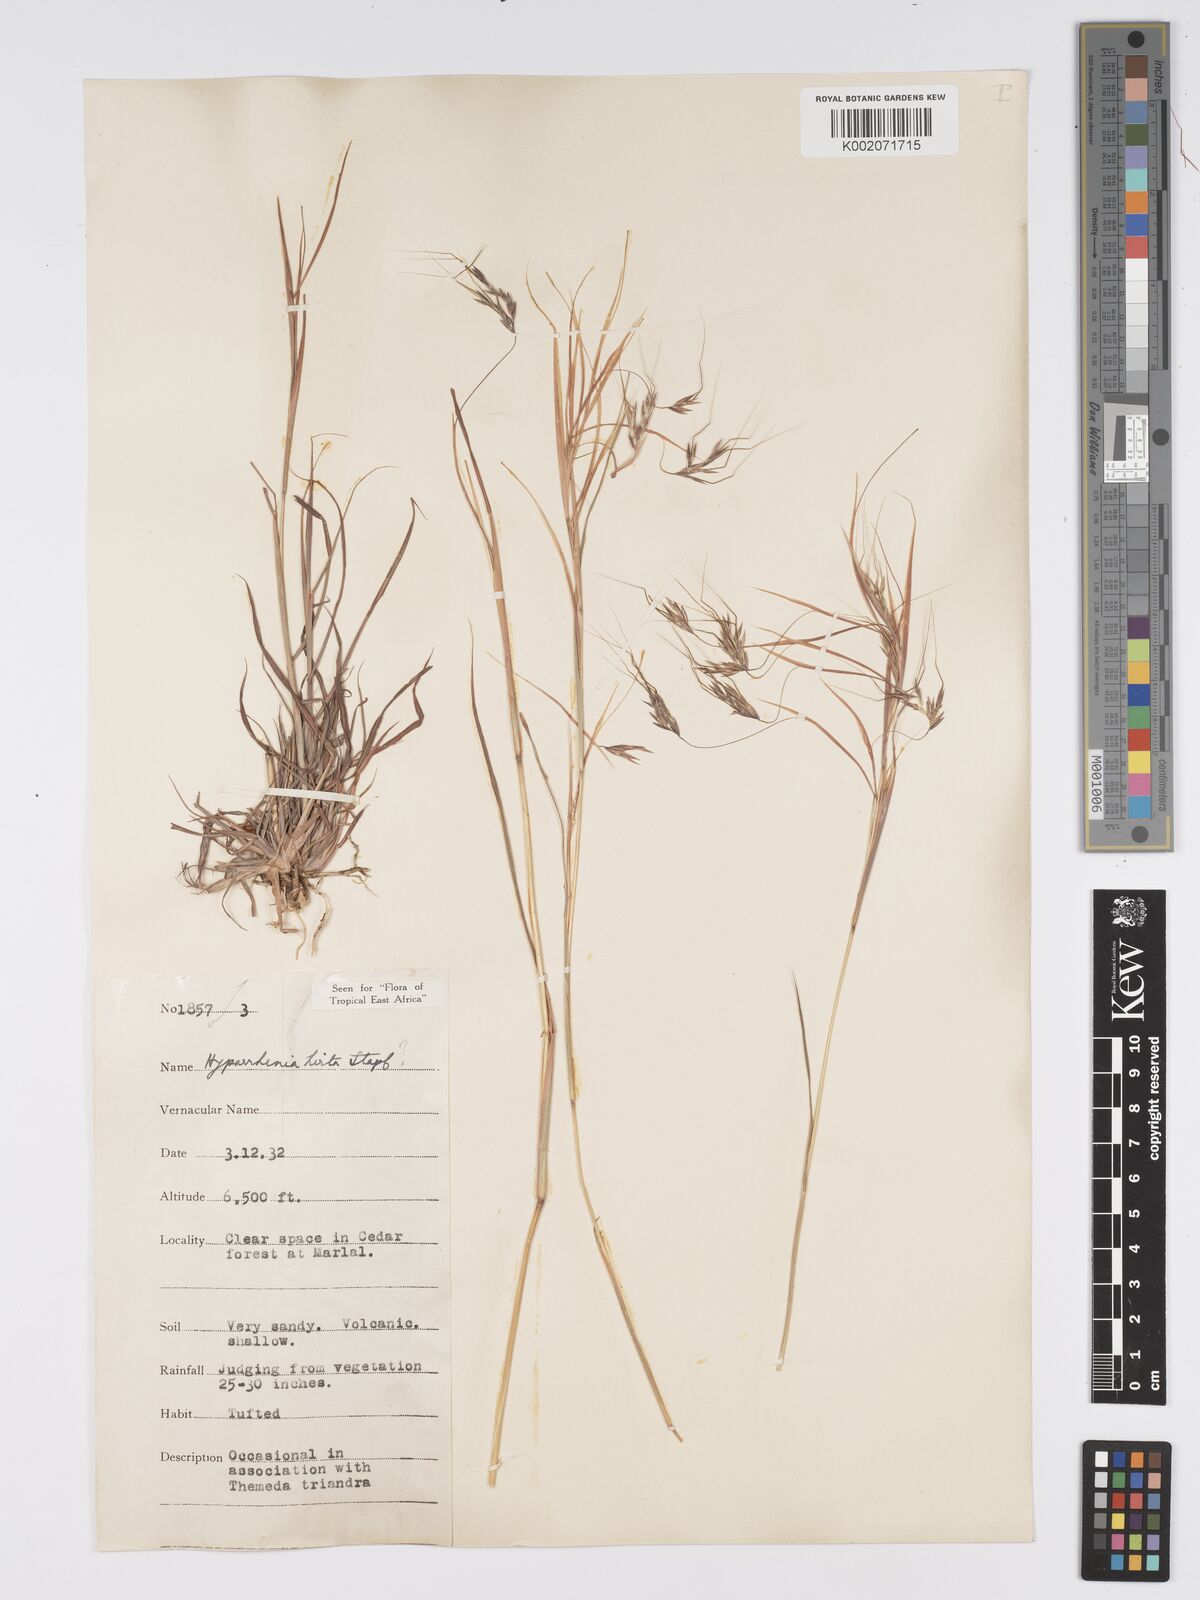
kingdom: Plantae
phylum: Tracheophyta
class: Liliopsida
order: Poales
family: Poaceae
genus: Hyparrhenia
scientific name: Hyparrhenia hirta
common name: Thatching grass
